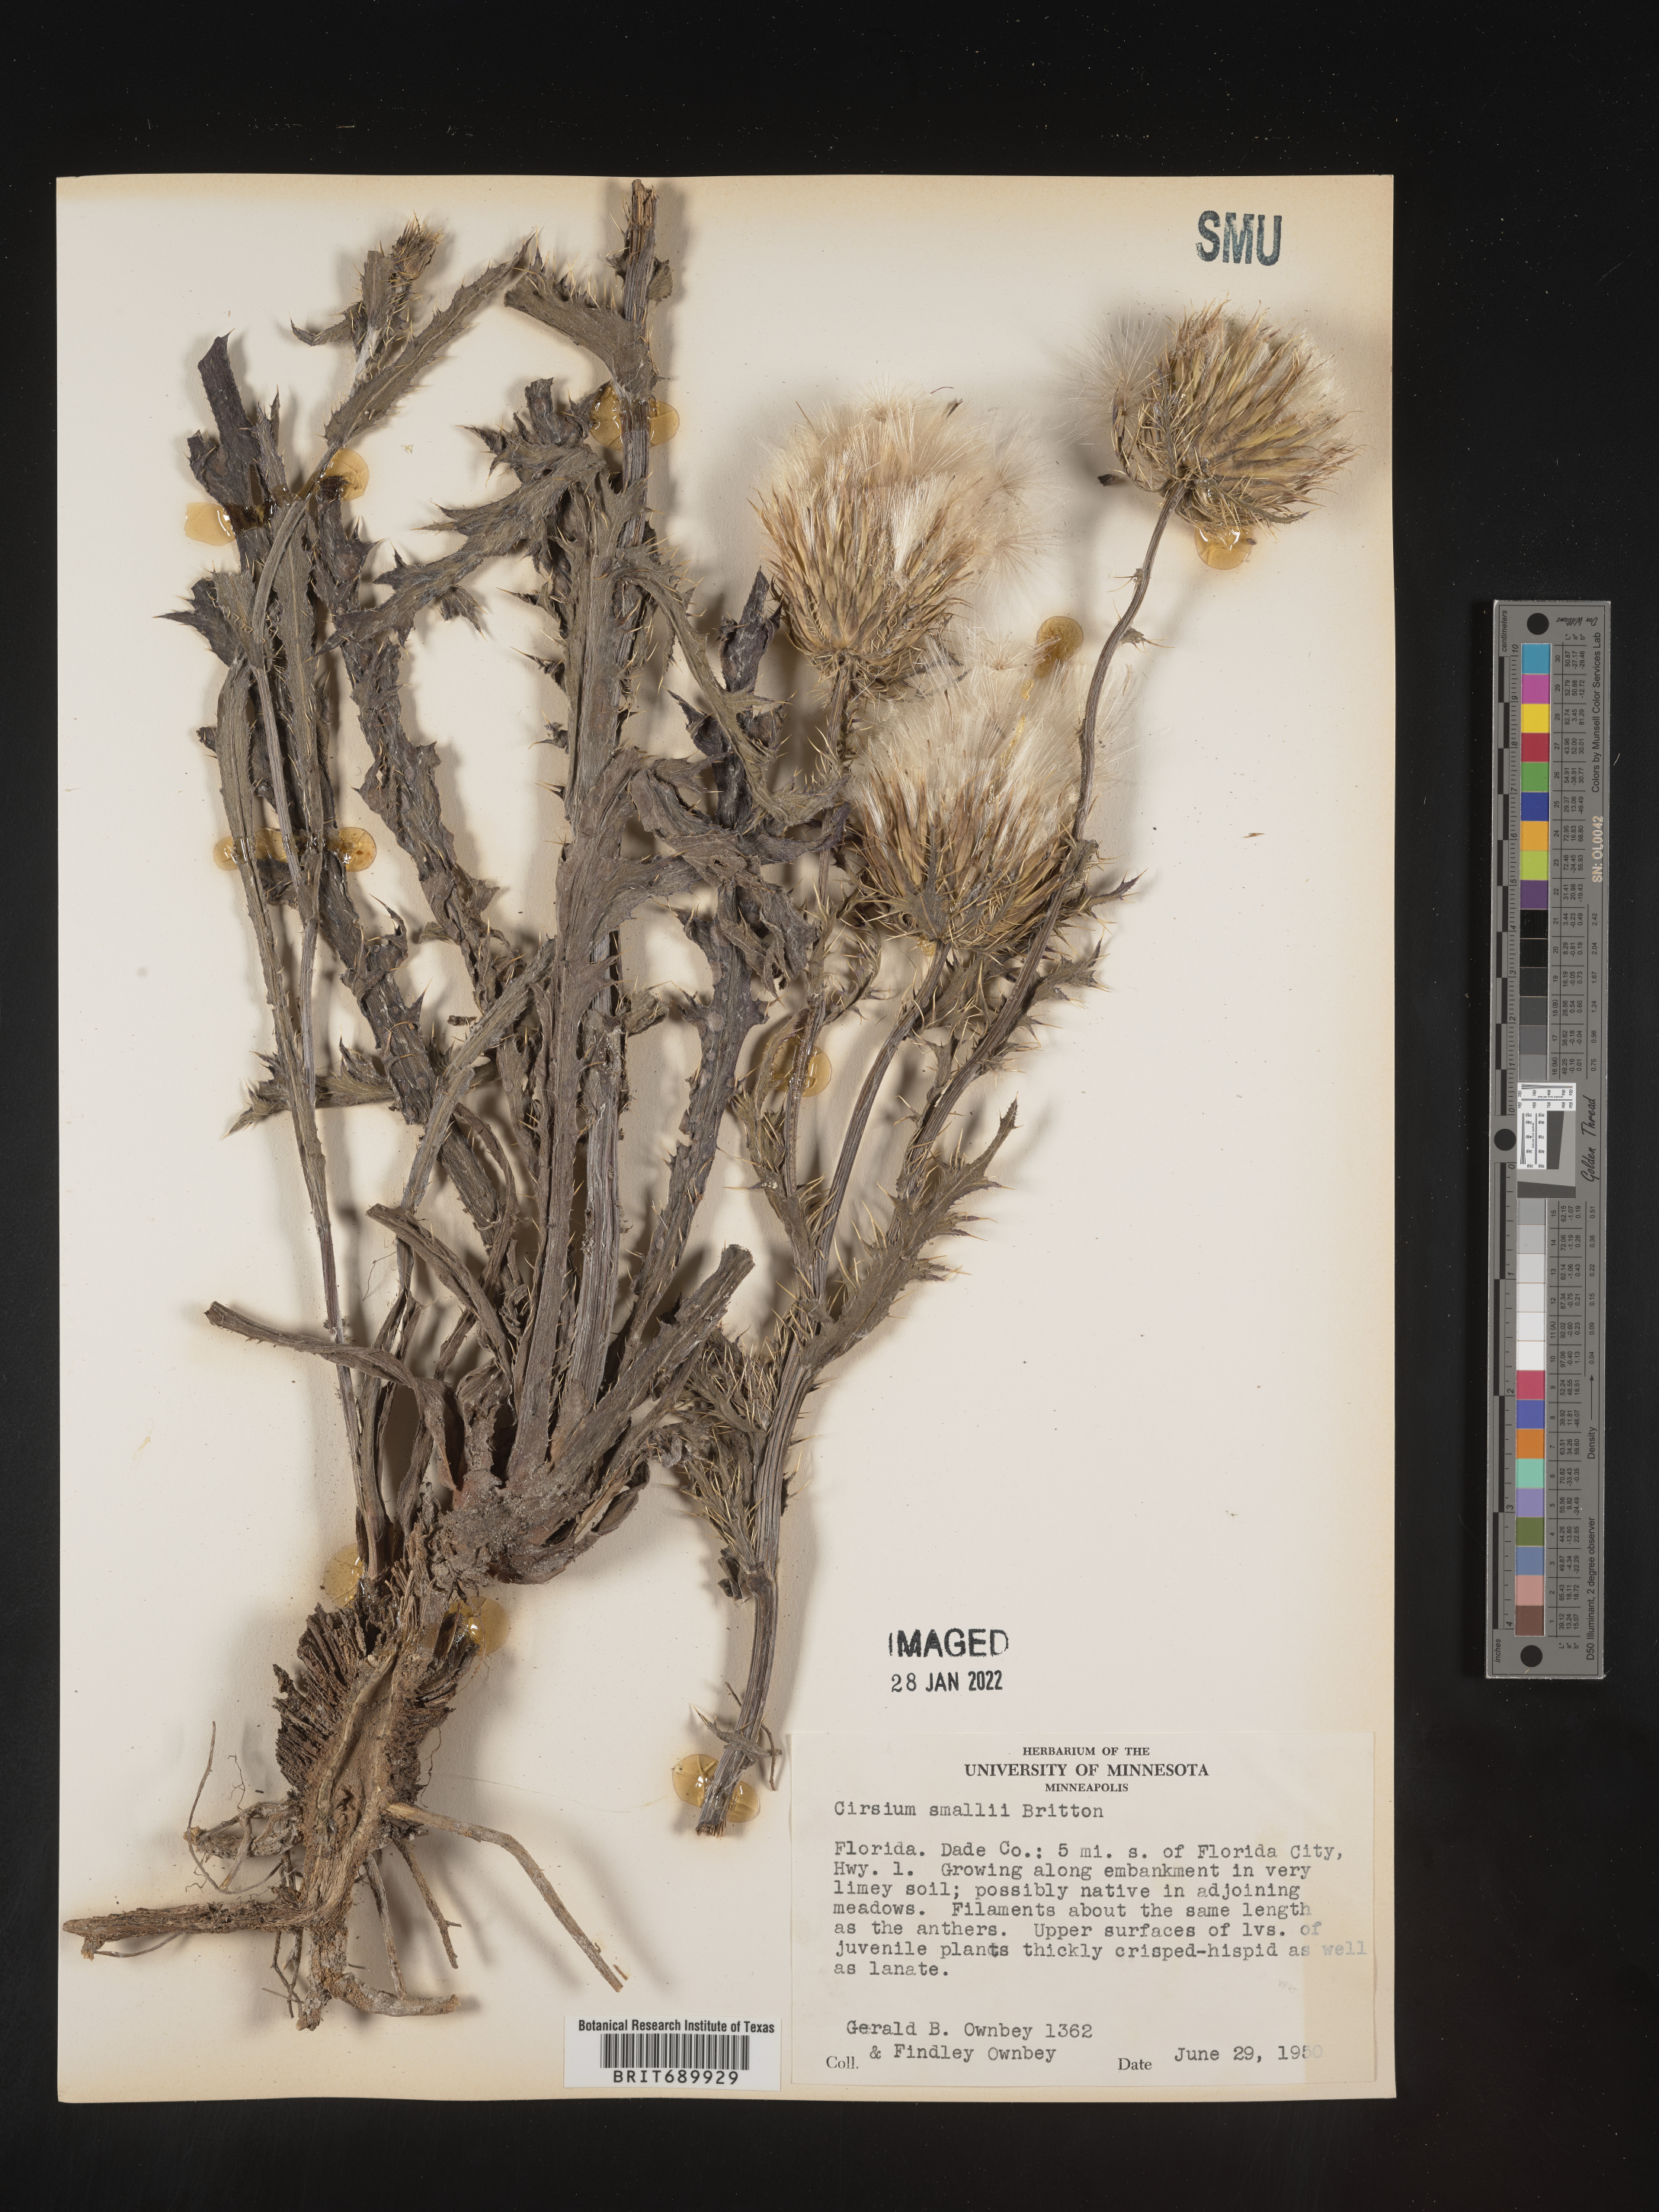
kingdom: Plantae
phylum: Tracheophyta
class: Magnoliopsida
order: Asterales
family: Asteraceae
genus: Cirsium
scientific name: Cirsium horridulum
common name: Bristly thistle
